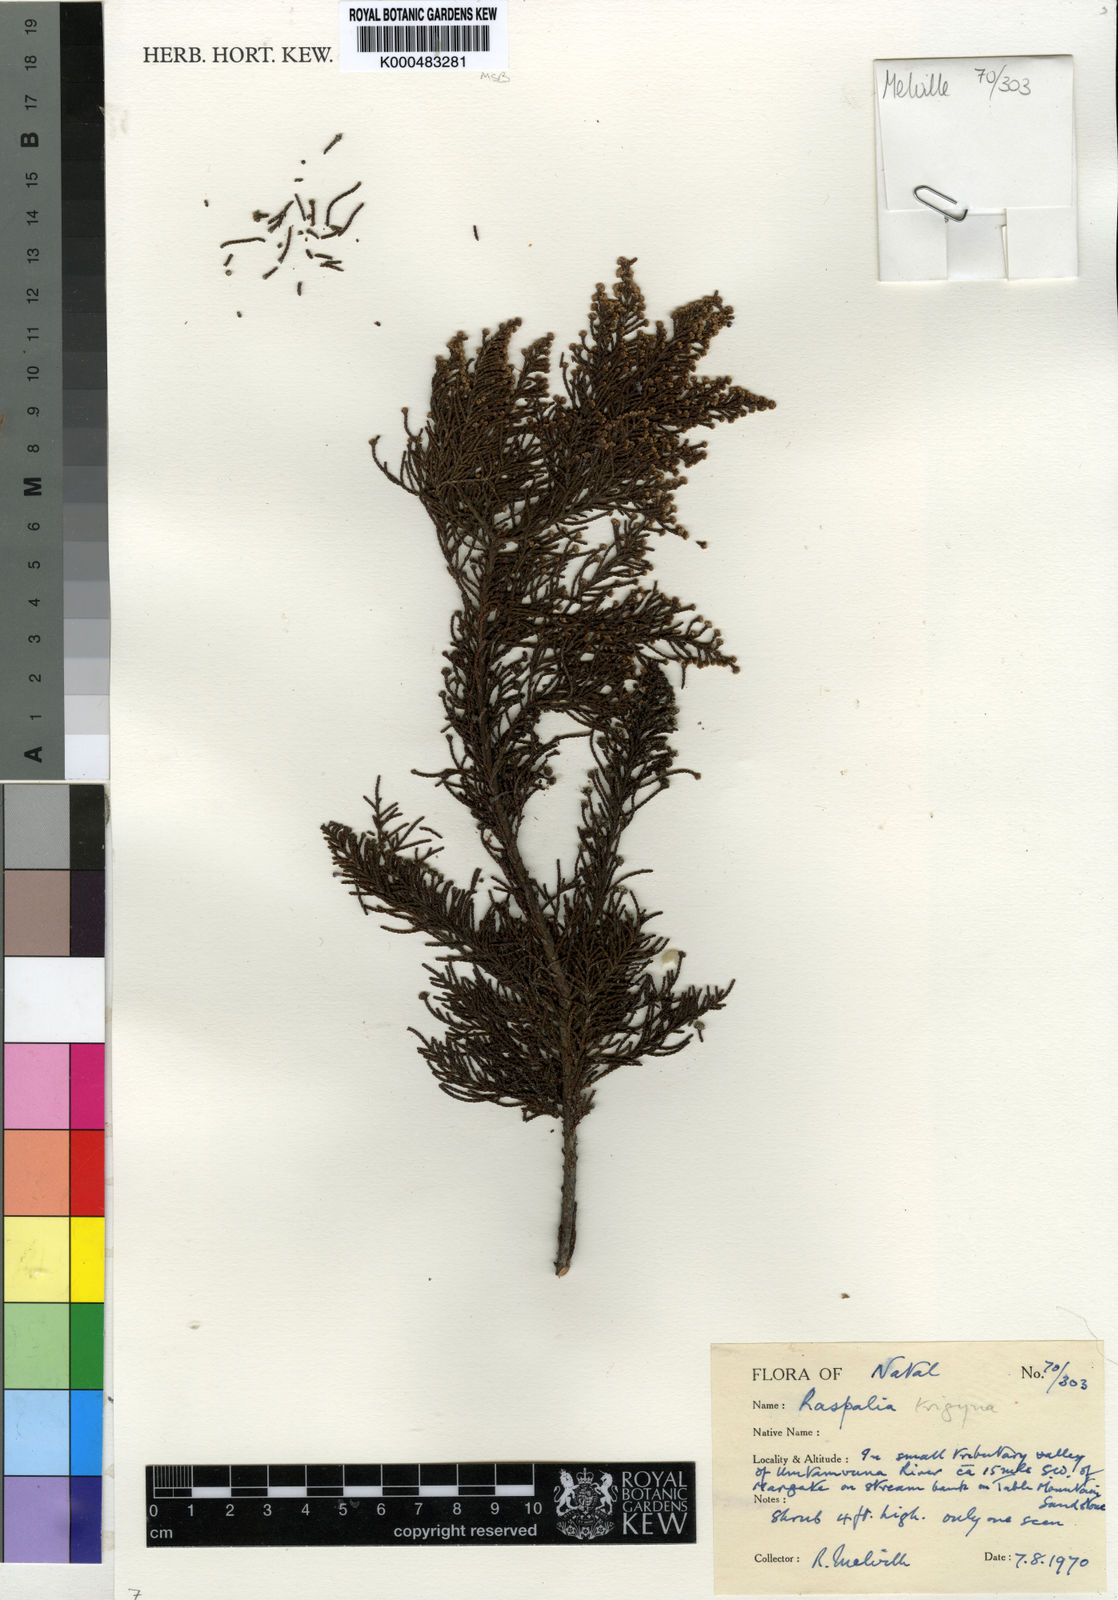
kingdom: Plantae
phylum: Tracheophyta
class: Magnoliopsida
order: Bruniales
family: Bruniaceae
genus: Brunia
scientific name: Brunia trigyna
